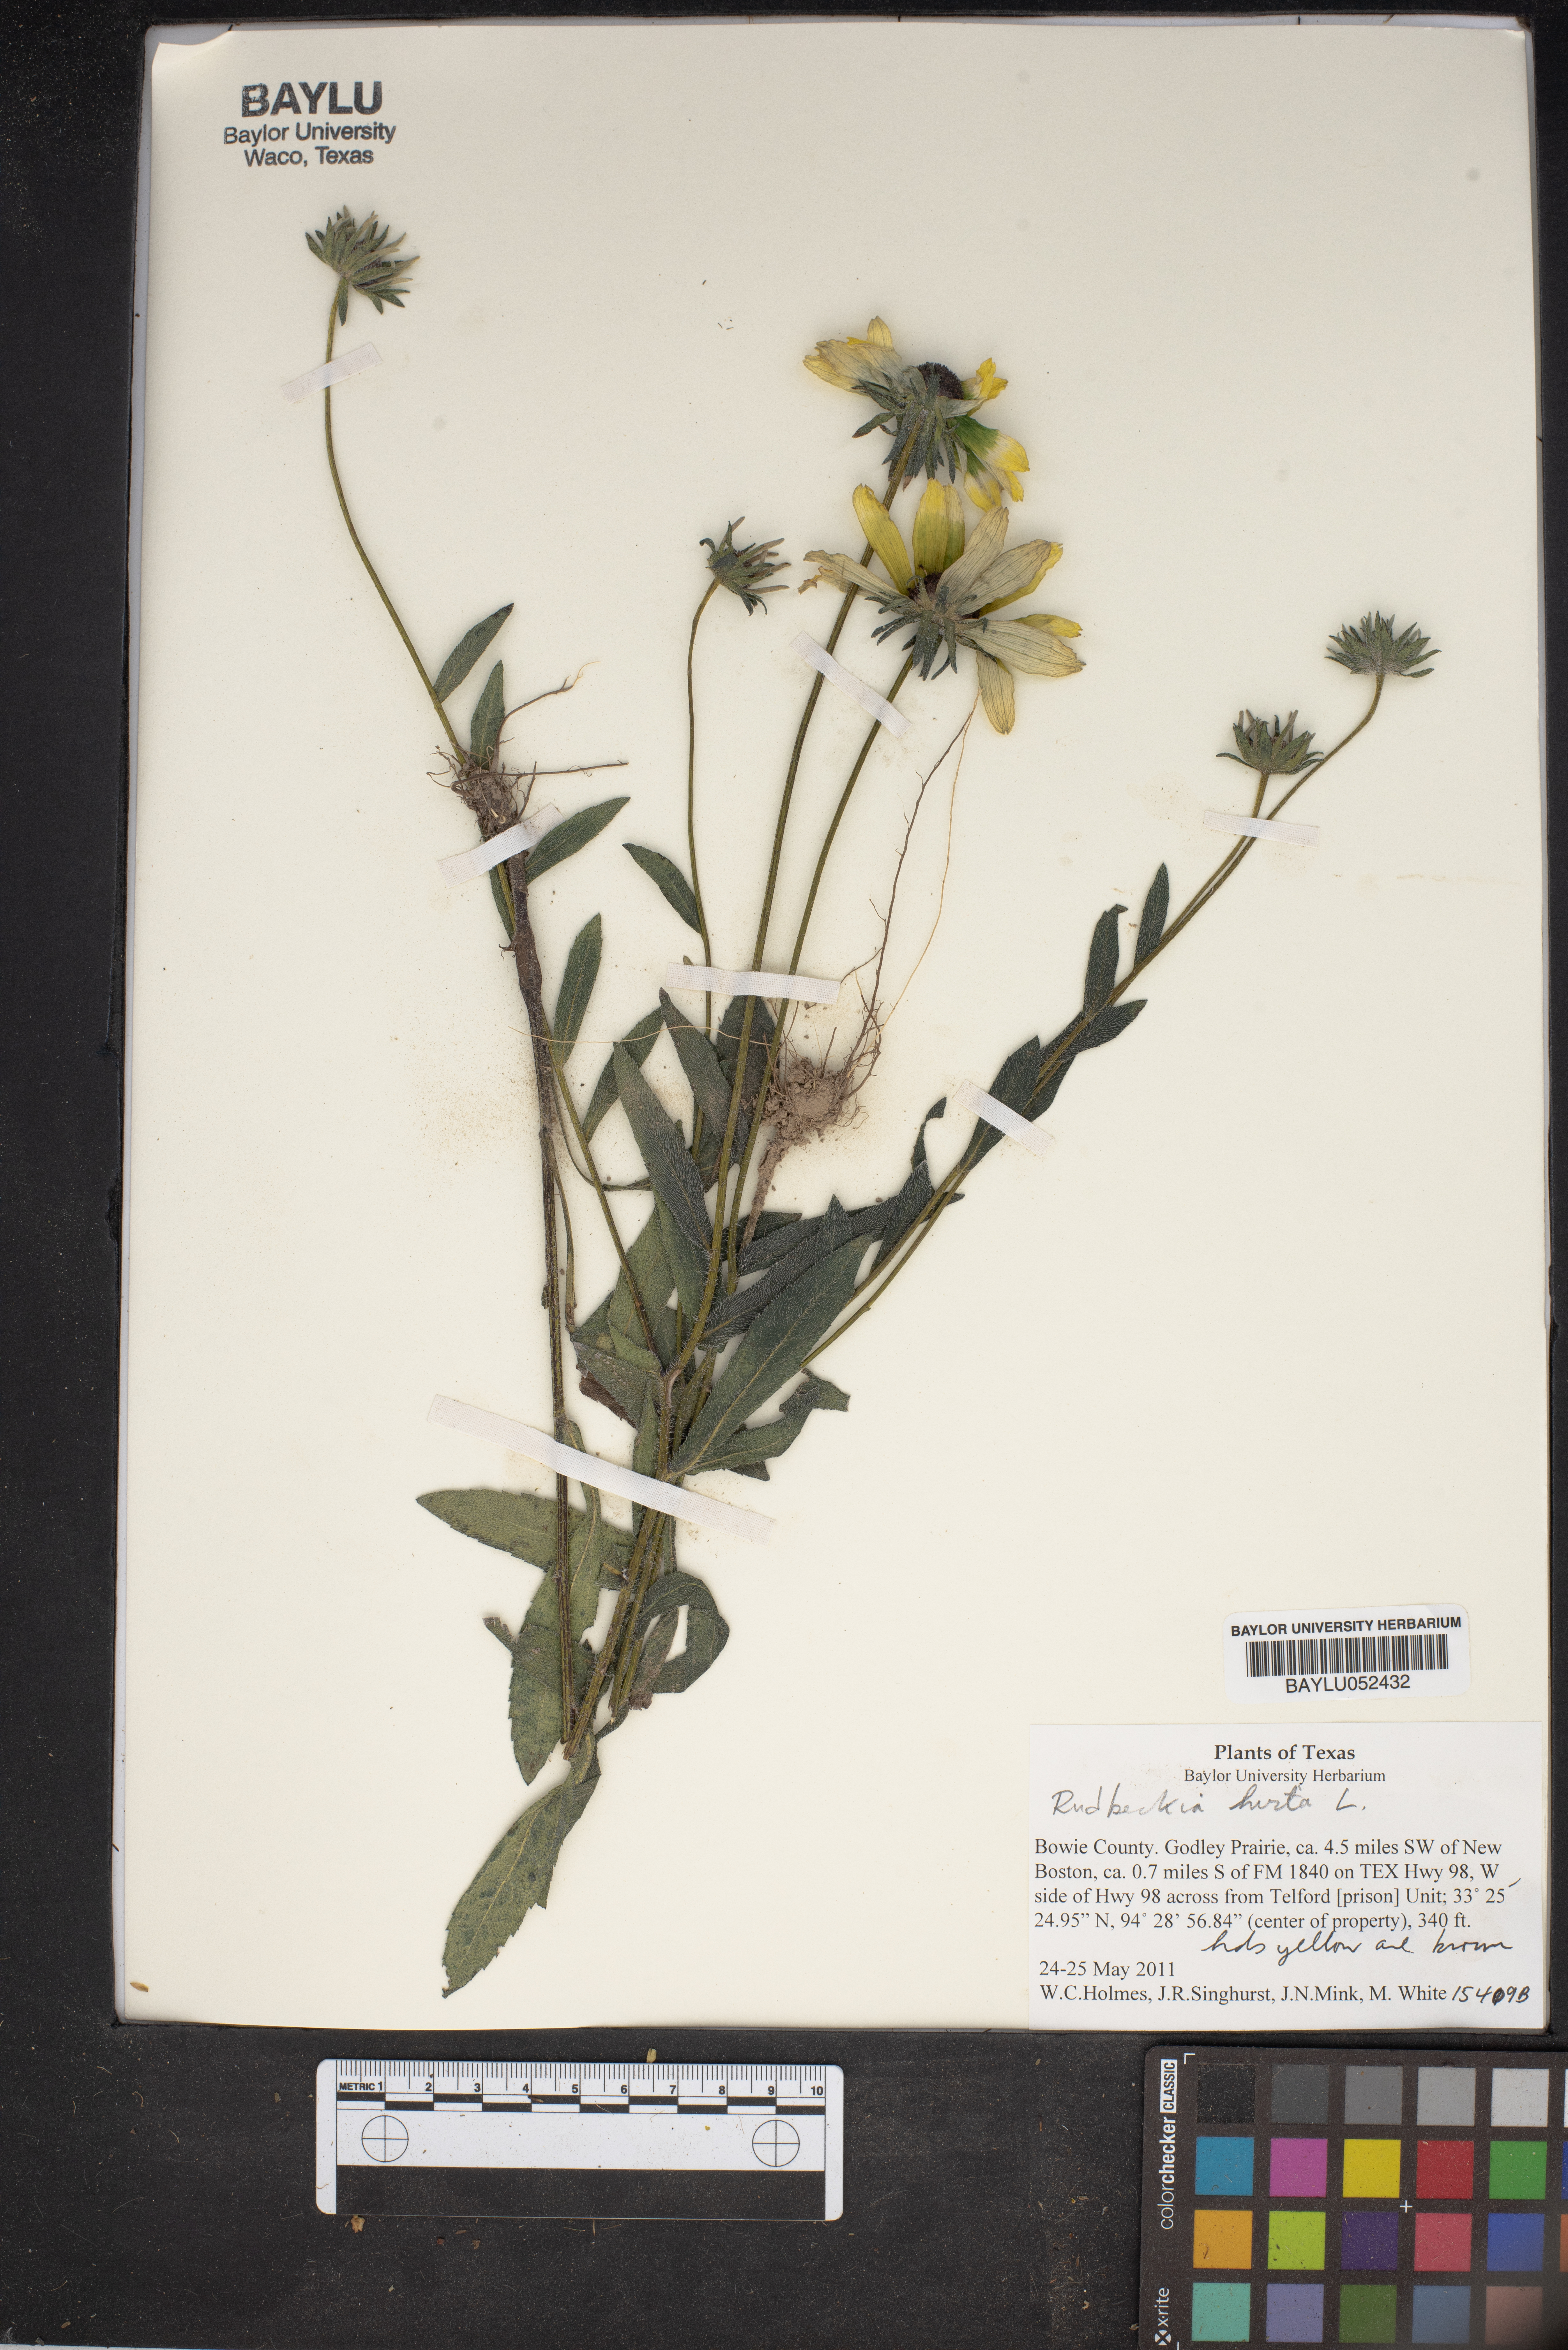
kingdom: Plantae
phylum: Tracheophyta
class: Magnoliopsida
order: Asterales
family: Asteraceae
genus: Rudbeckia
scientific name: Rudbeckia hirta
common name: Black-eyed-susan
